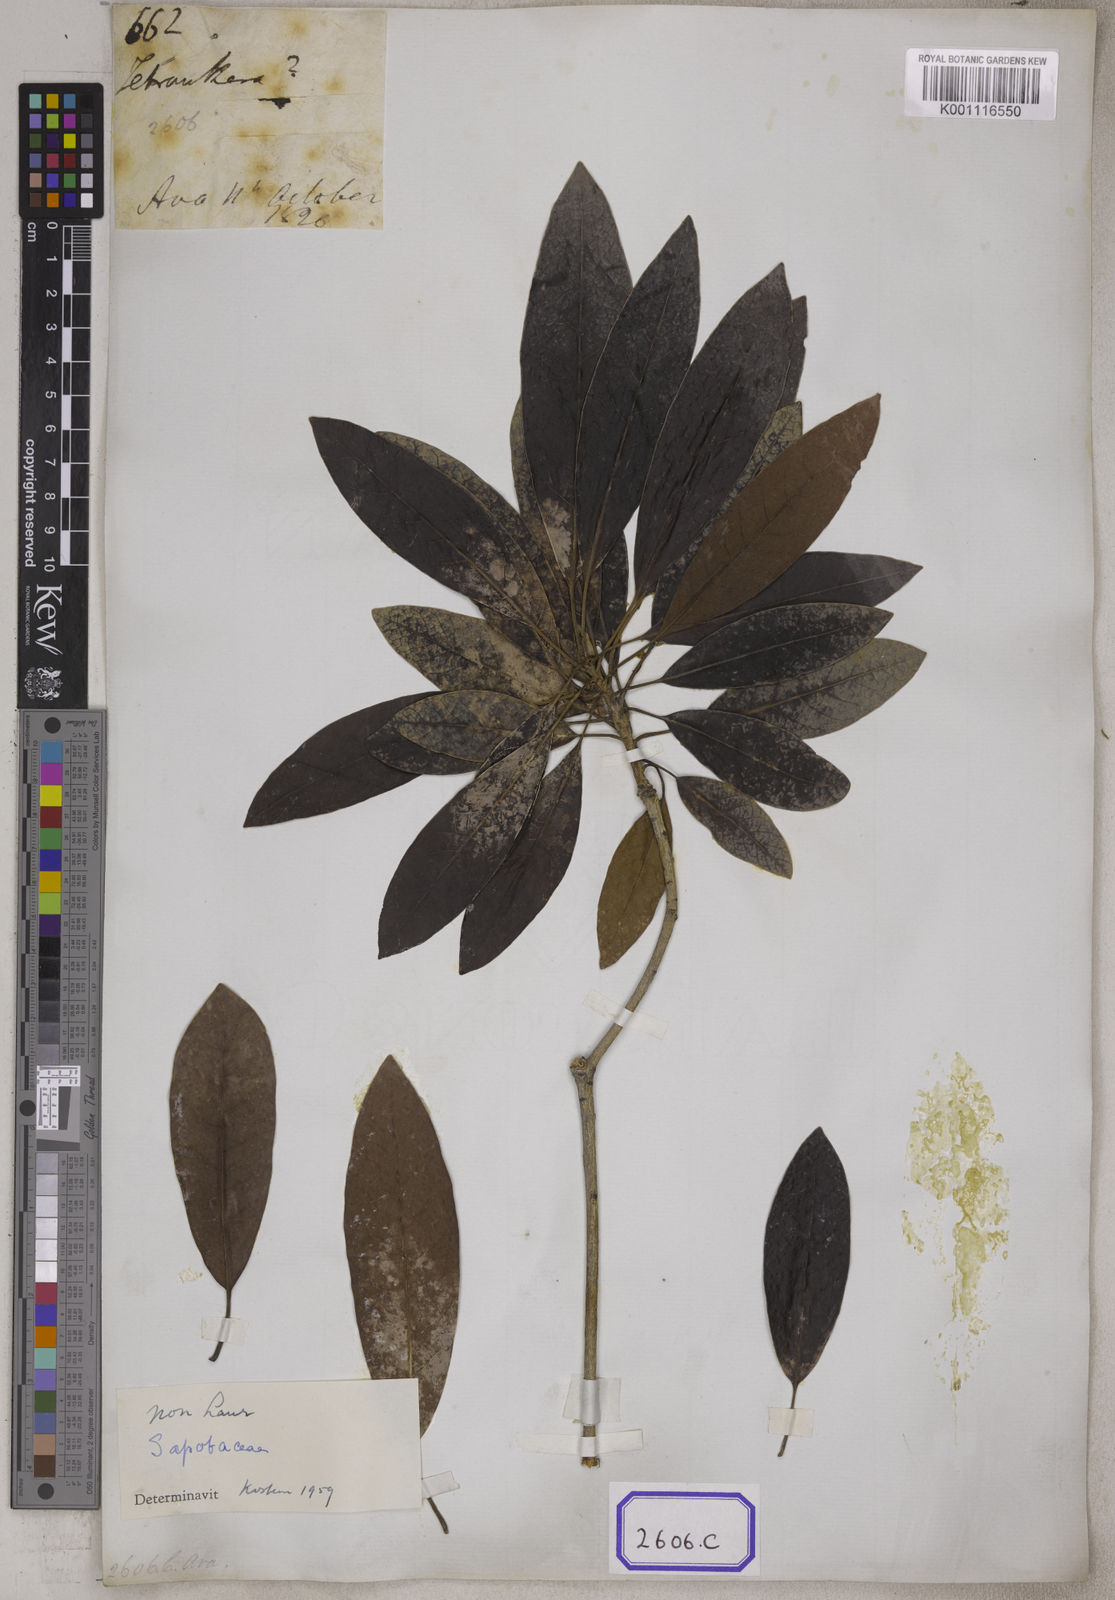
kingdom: Plantae
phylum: Tracheophyta
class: Magnoliopsida
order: Laurales
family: Lauraceae
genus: Machilus
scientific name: Machilus sericea
